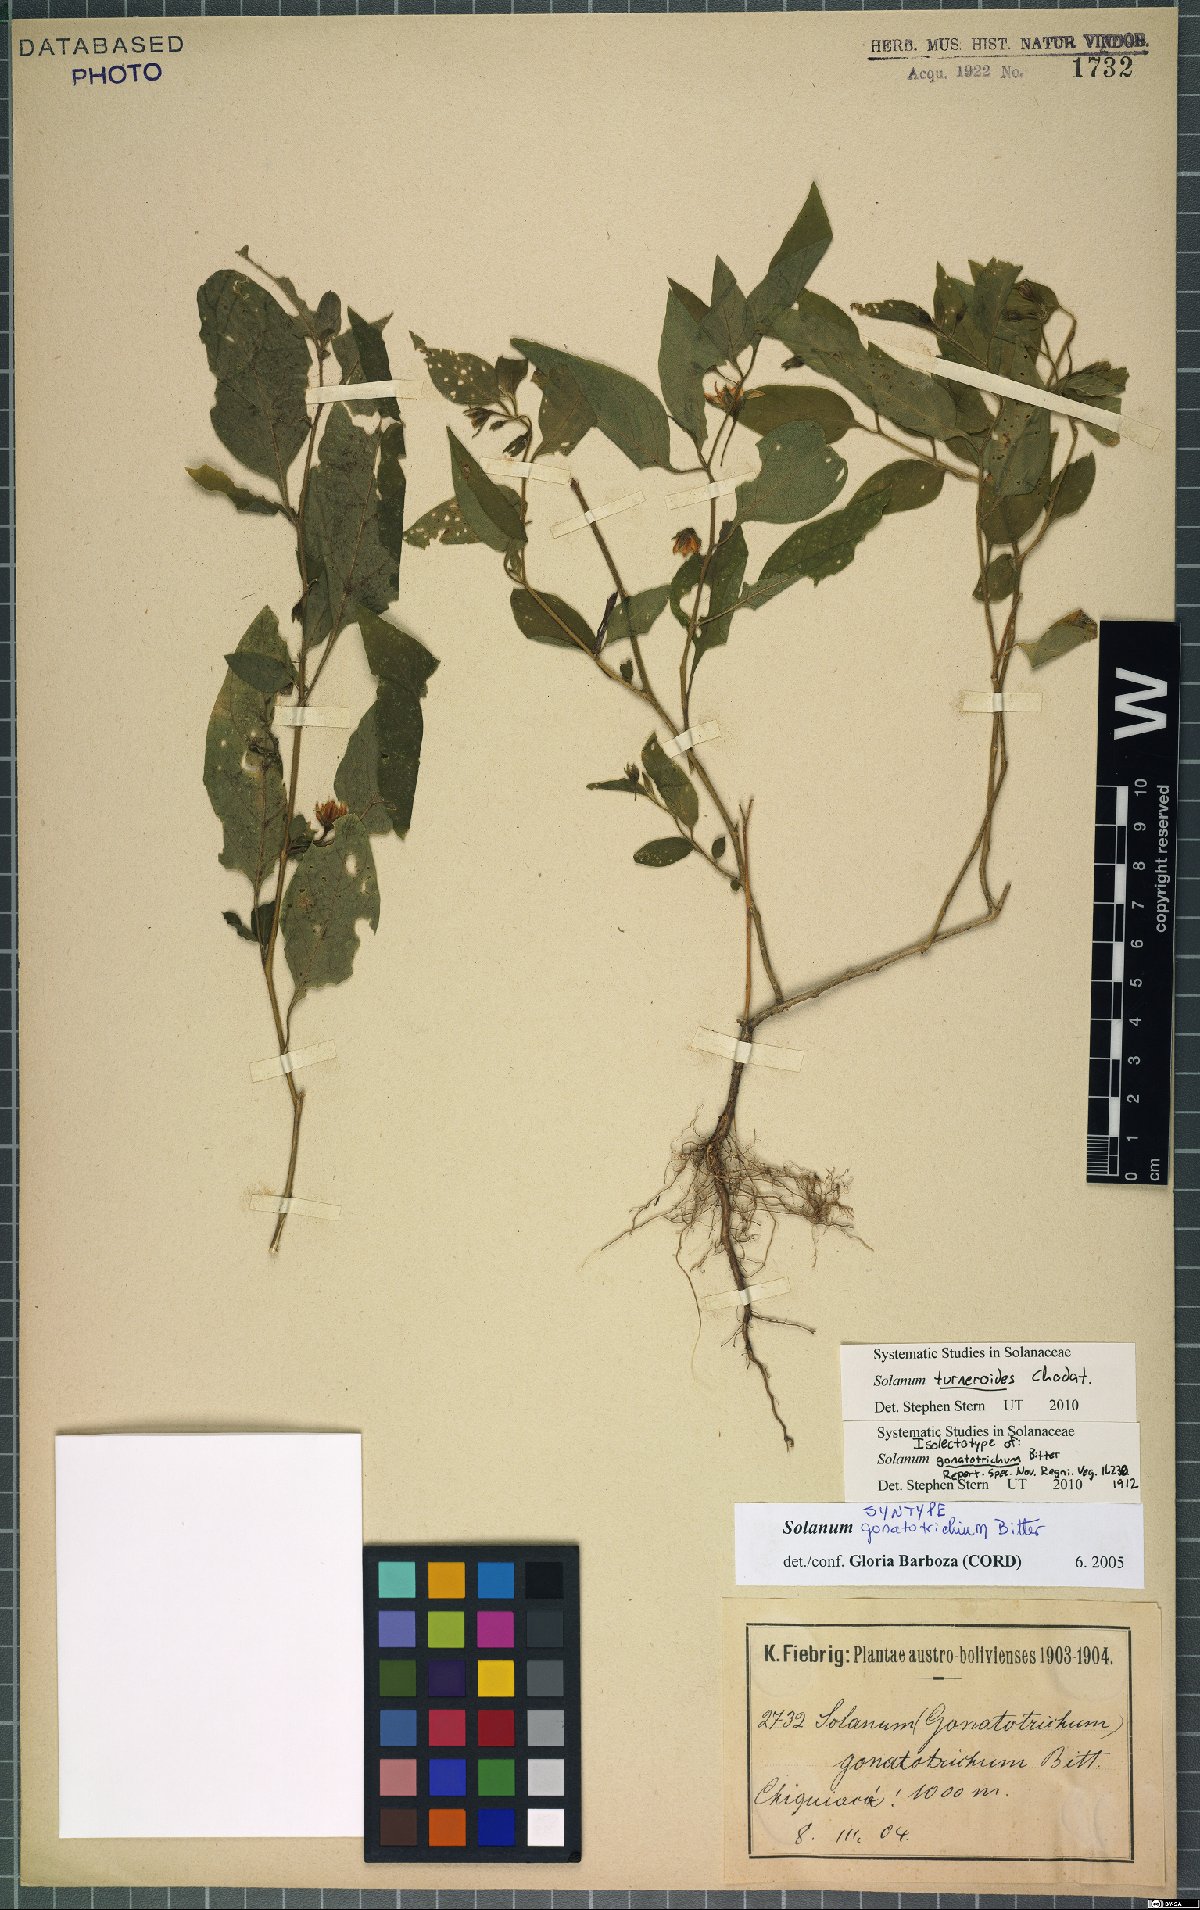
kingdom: Plantae
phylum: Tracheophyta
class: Magnoliopsida
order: Solanales
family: Solanaceae
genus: Solanum
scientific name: Solanum turneroides
